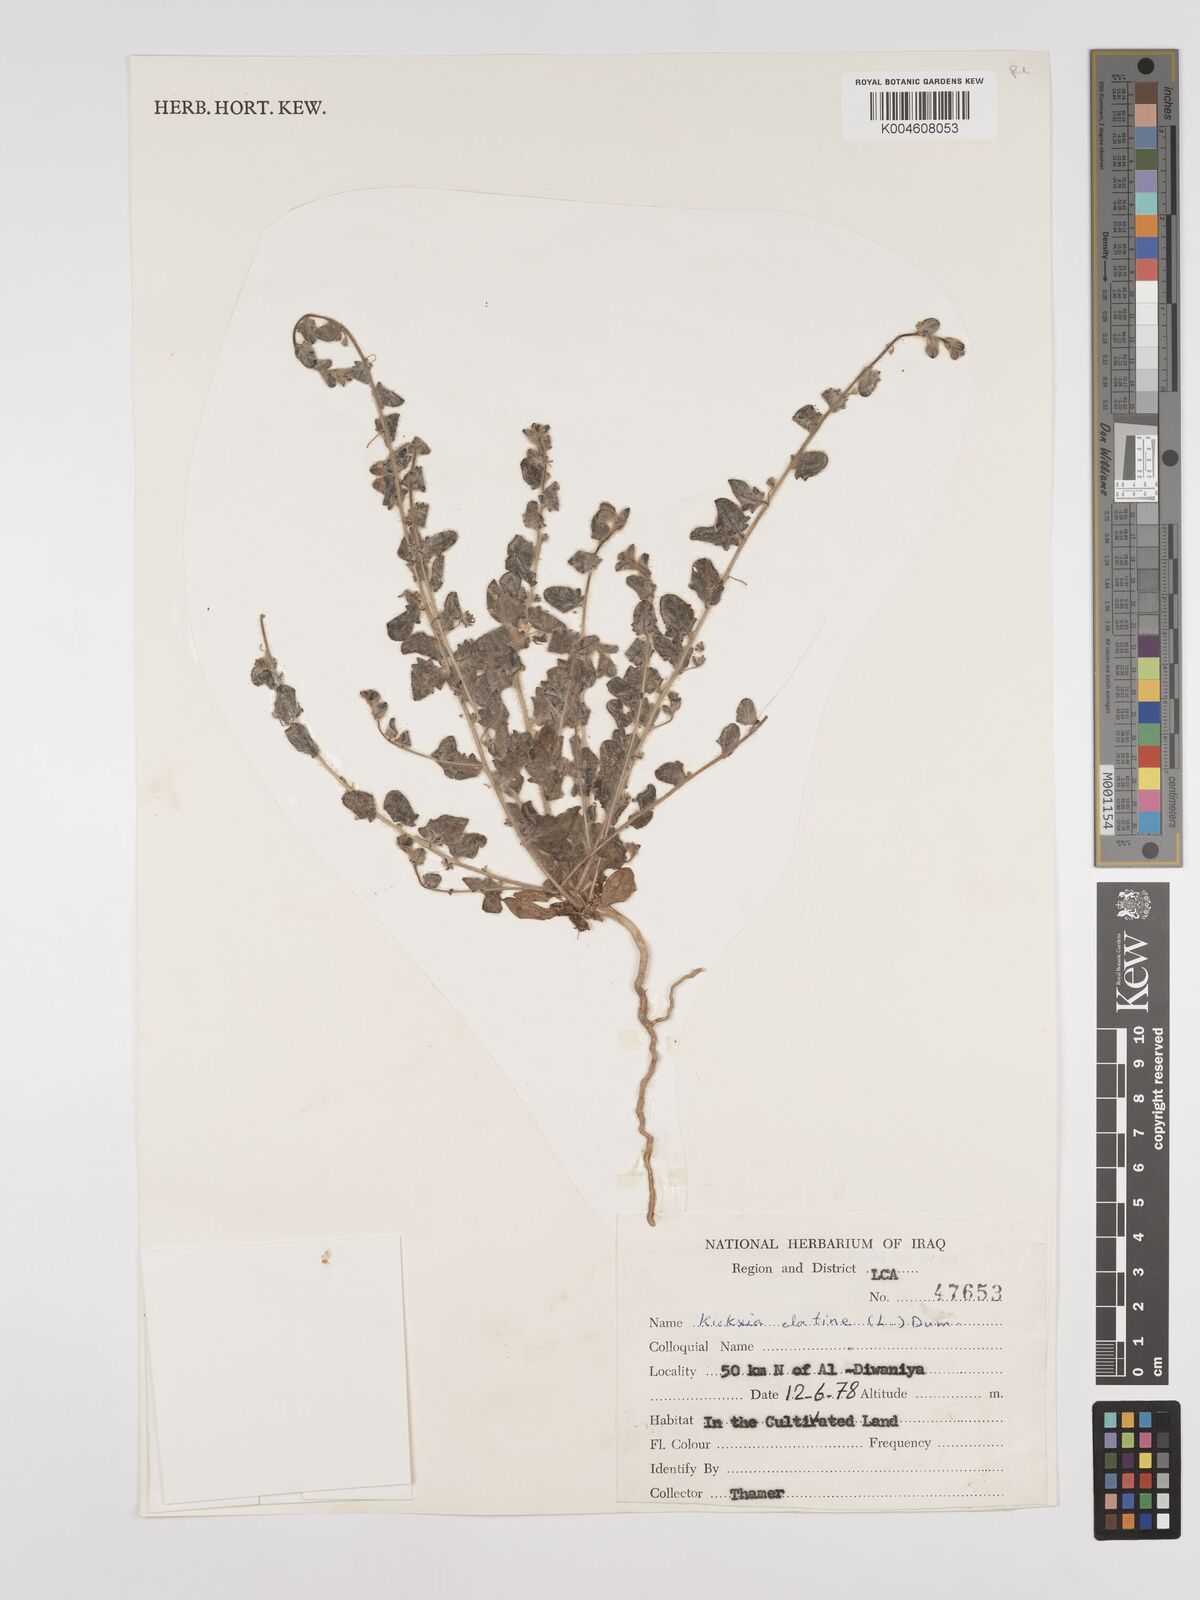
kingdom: Plantae
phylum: Tracheophyta
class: Magnoliopsida
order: Lamiales
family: Plantaginaceae
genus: Kickxia
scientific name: Kickxia elatine
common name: Sharp-leaved fluellen
